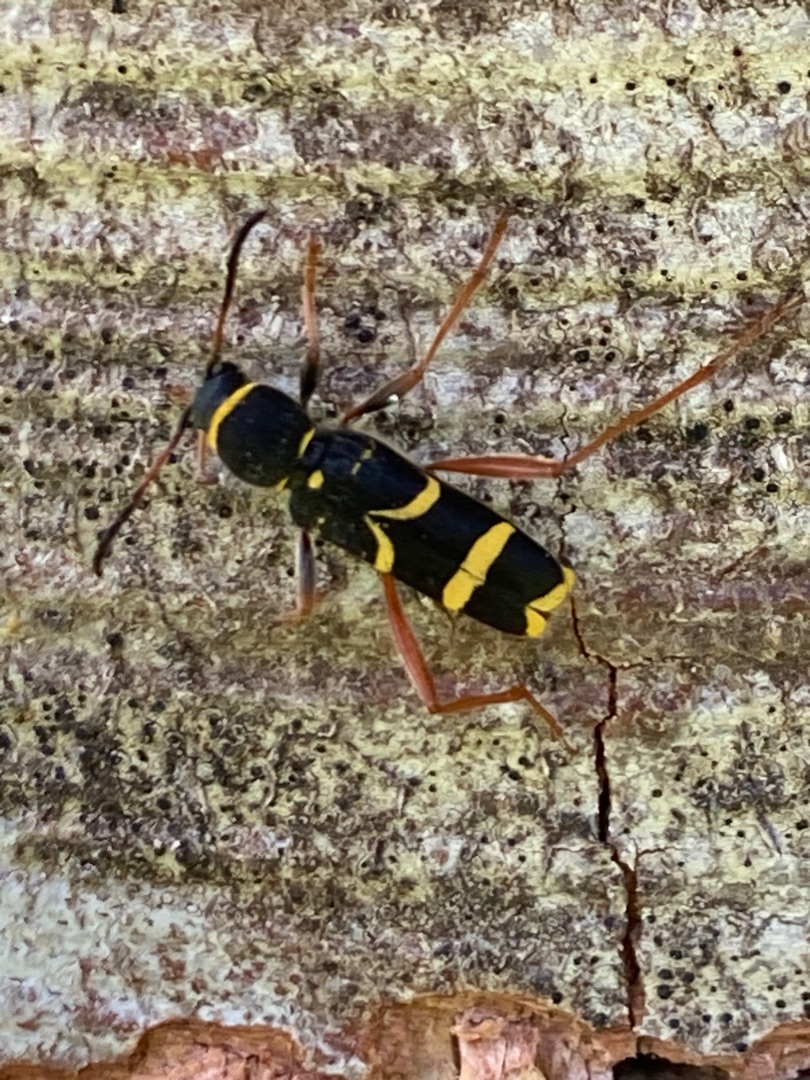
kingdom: Animalia
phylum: Arthropoda
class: Insecta
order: Coleoptera
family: Cerambycidae
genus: Clytus
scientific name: Clytus arietis
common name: Lille hvepsebuk
